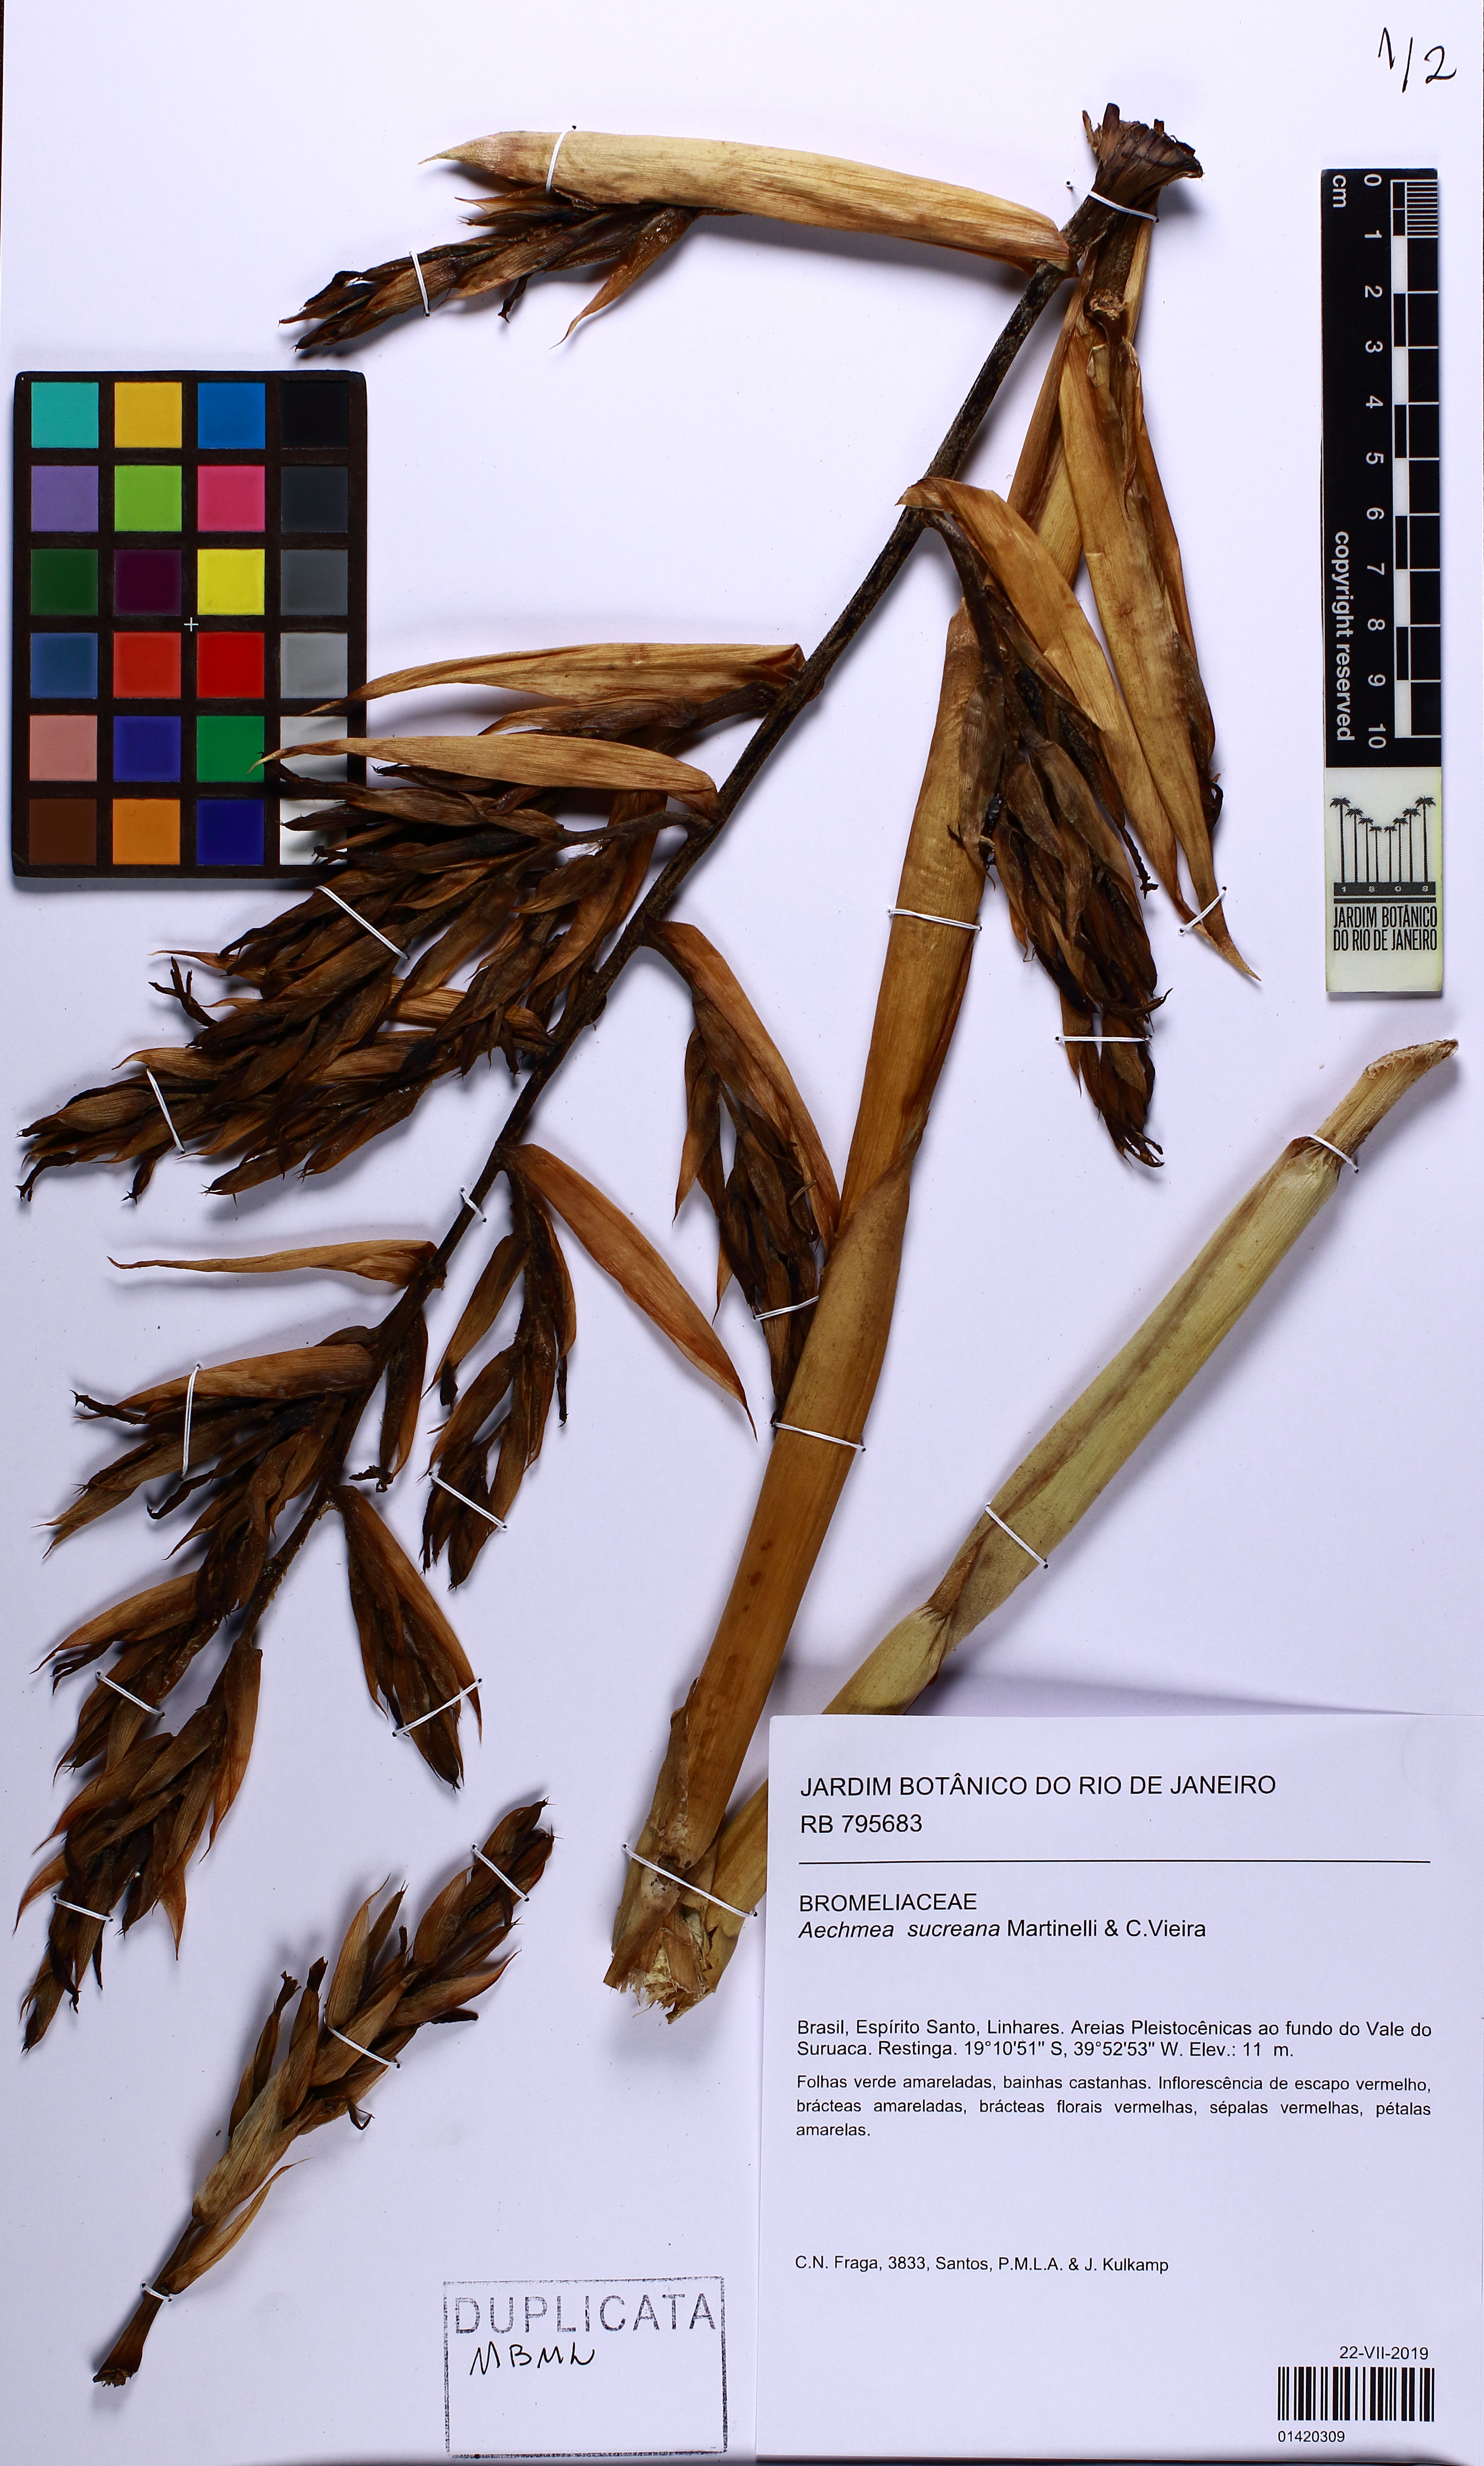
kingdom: Plantae
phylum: Tracheophyta
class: Liliopsida
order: Poales
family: Bromeliaceae
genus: Aechmea
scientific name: Aechmea sucreana
